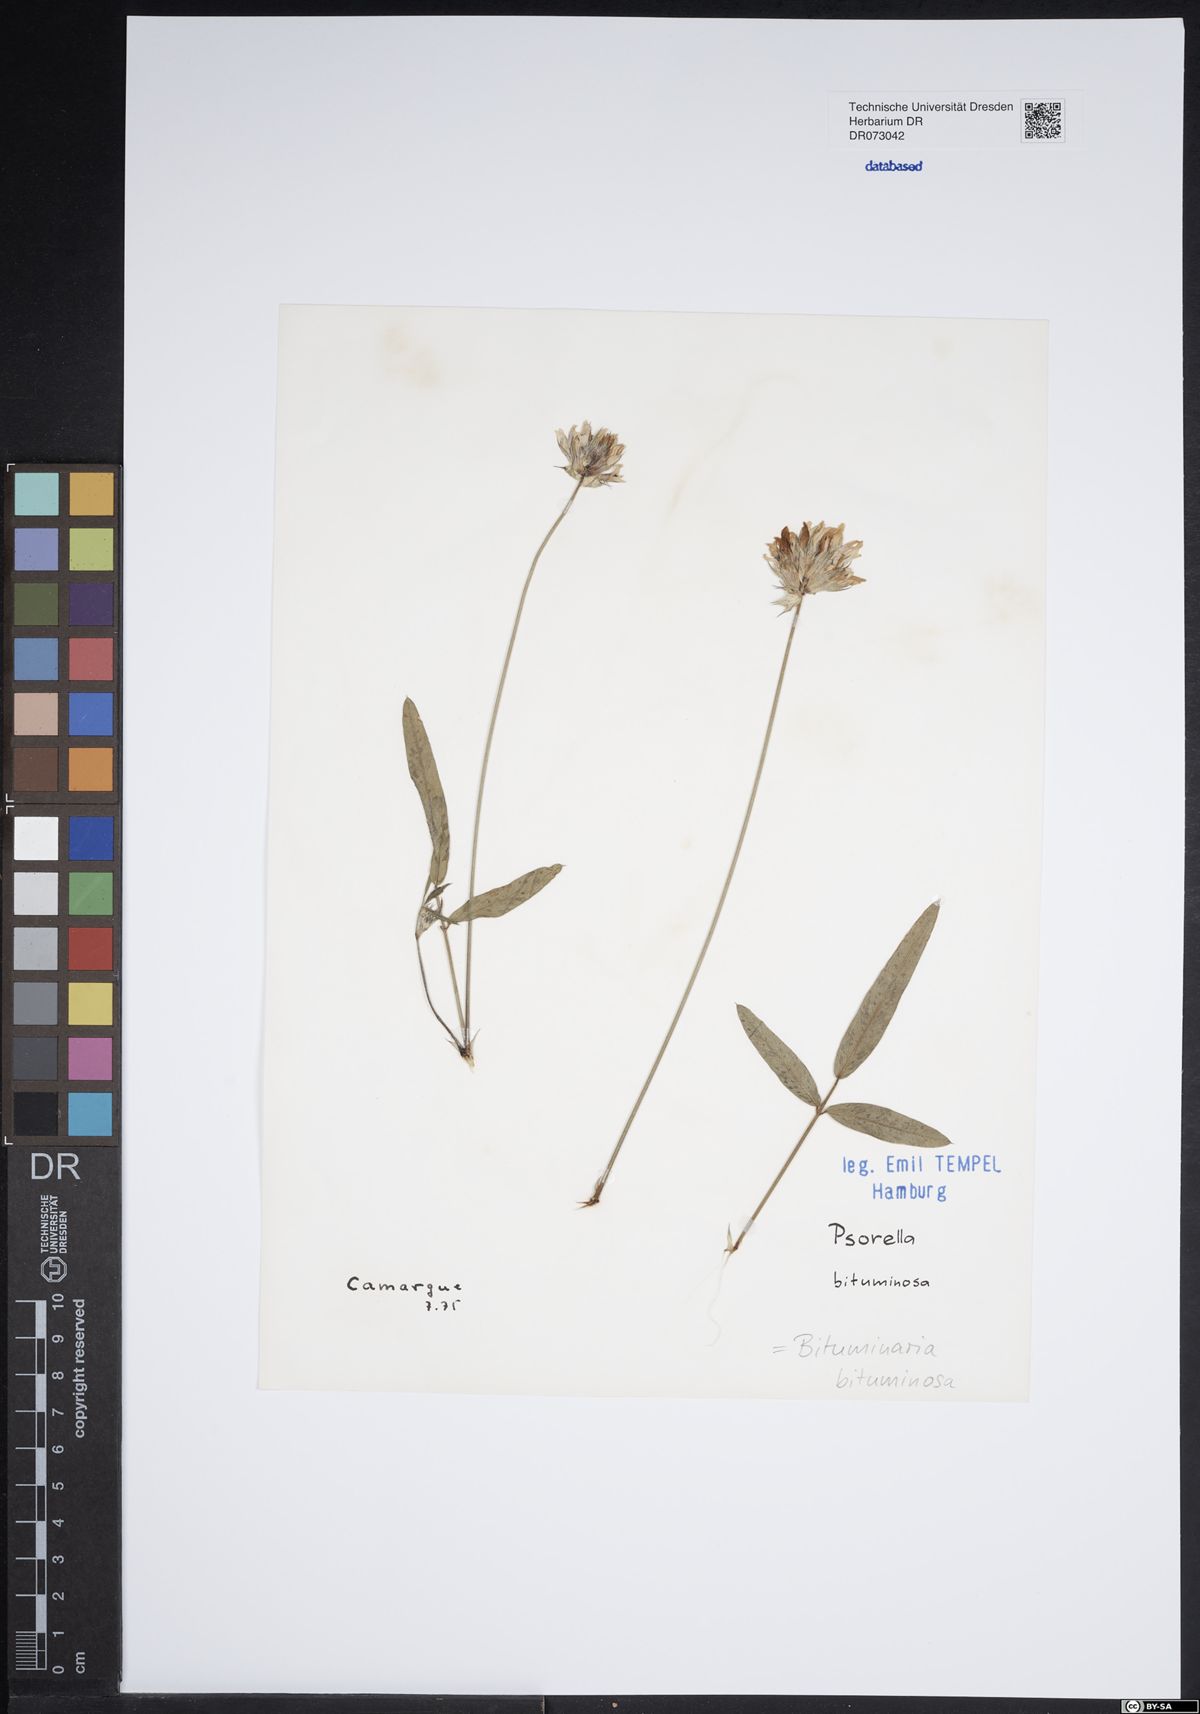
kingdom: Plantae
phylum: Tracheophyta
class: Magnoliopsida
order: Fabales
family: Fabaceae
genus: Bituminaria
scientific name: Bituminaria bituminosa
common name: Arabian pea
